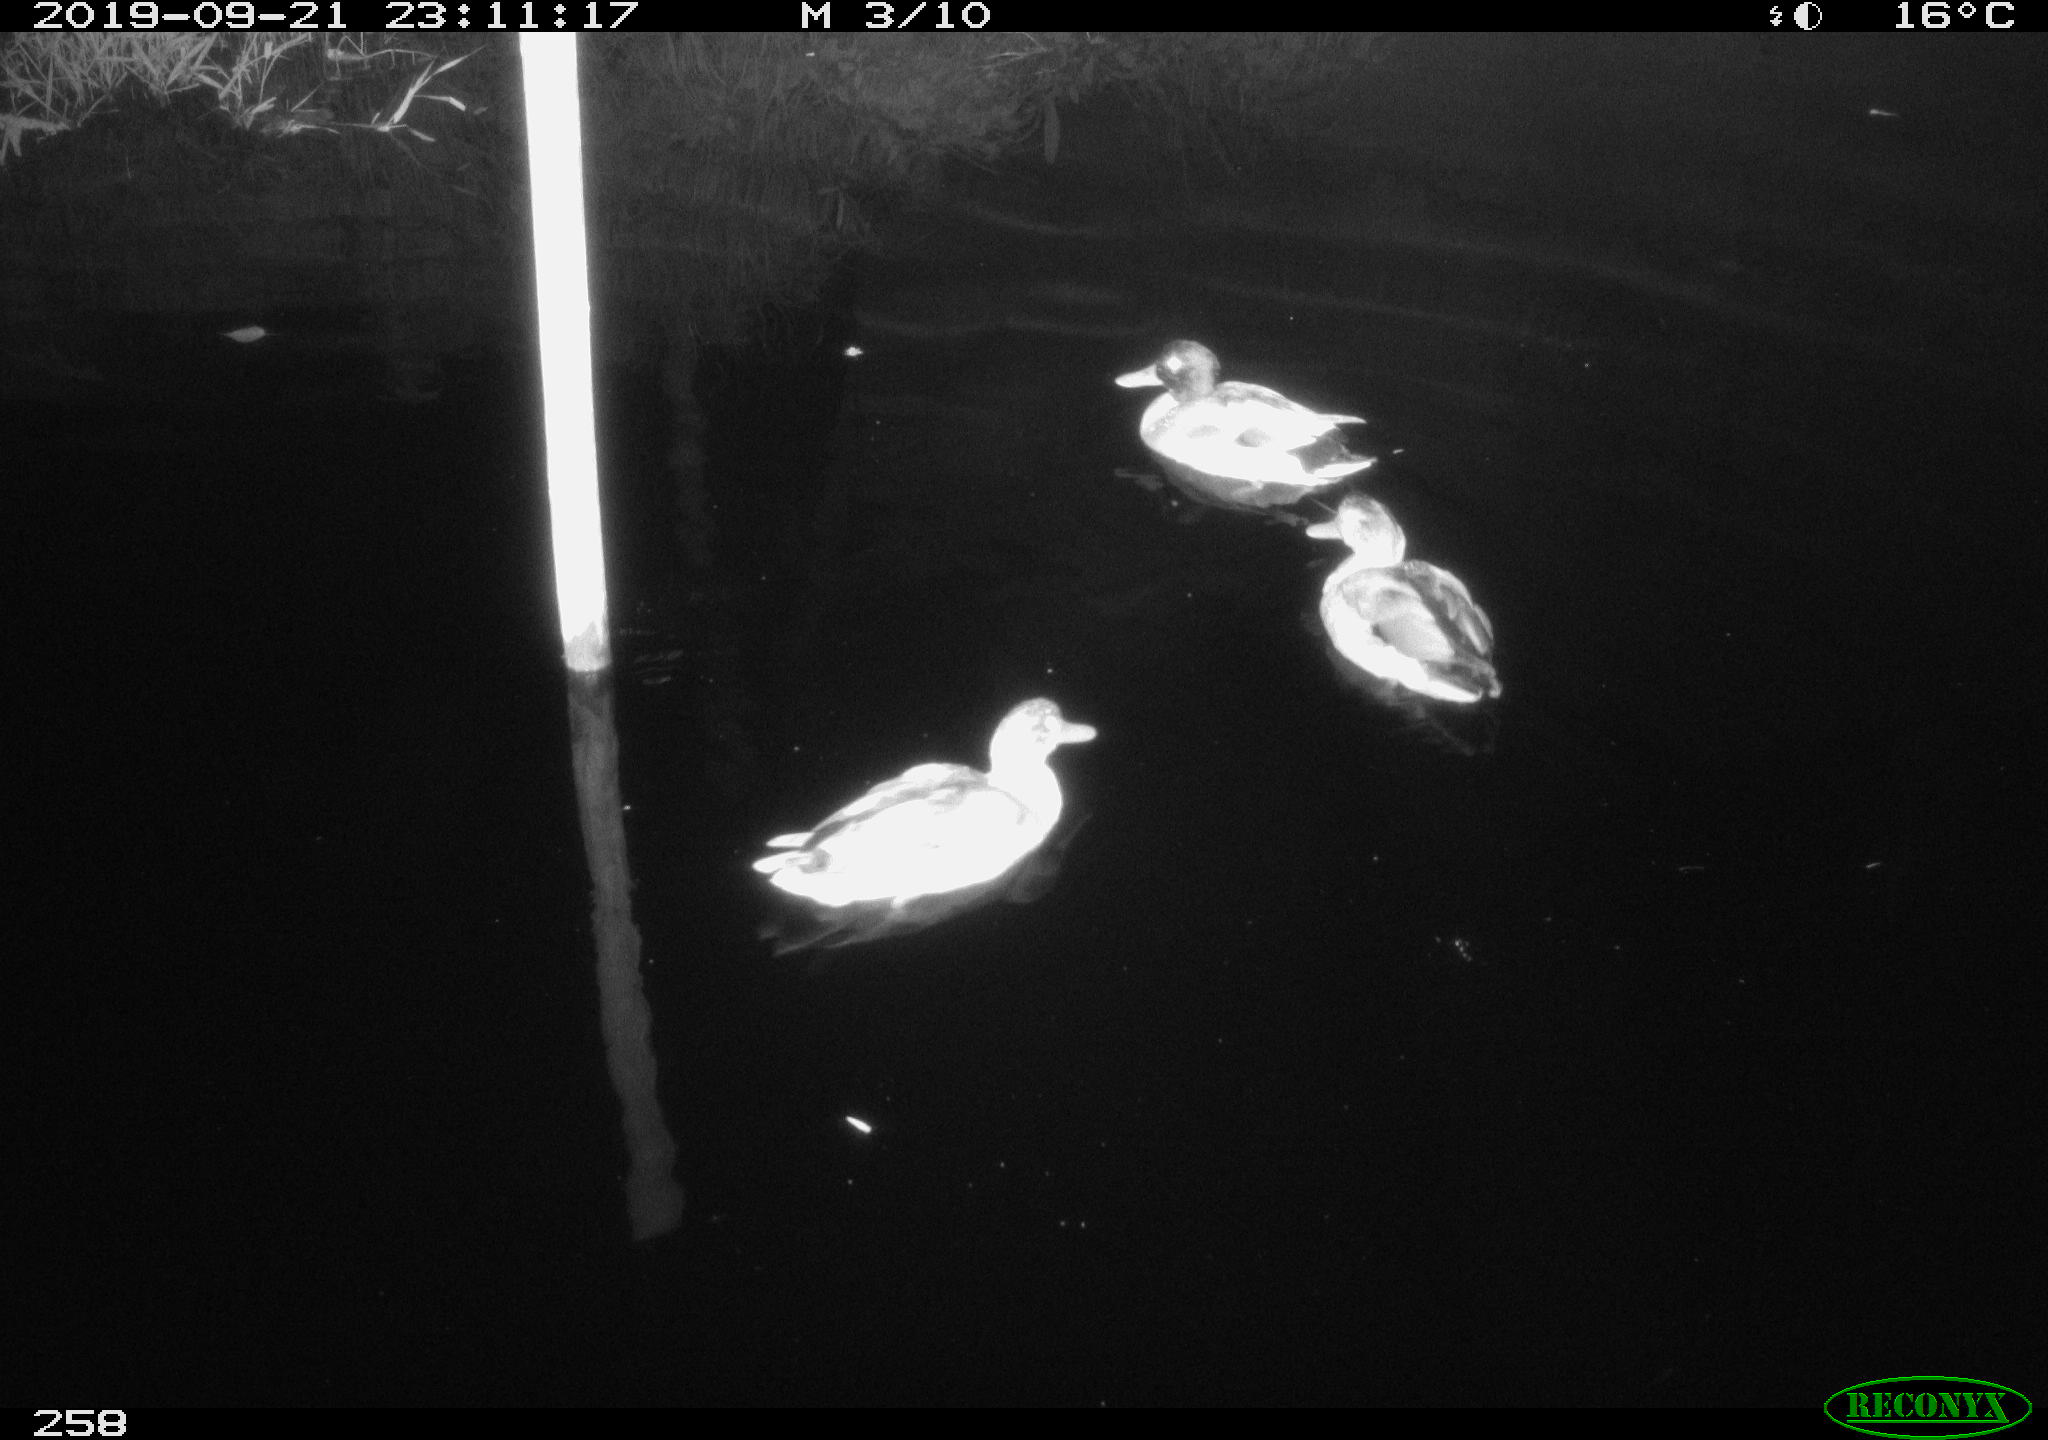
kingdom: Animalia
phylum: Chordata
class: Aves
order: Anseriformes
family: Anatidae
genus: Anas
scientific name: Anas platyrhynchos
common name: Mallard
